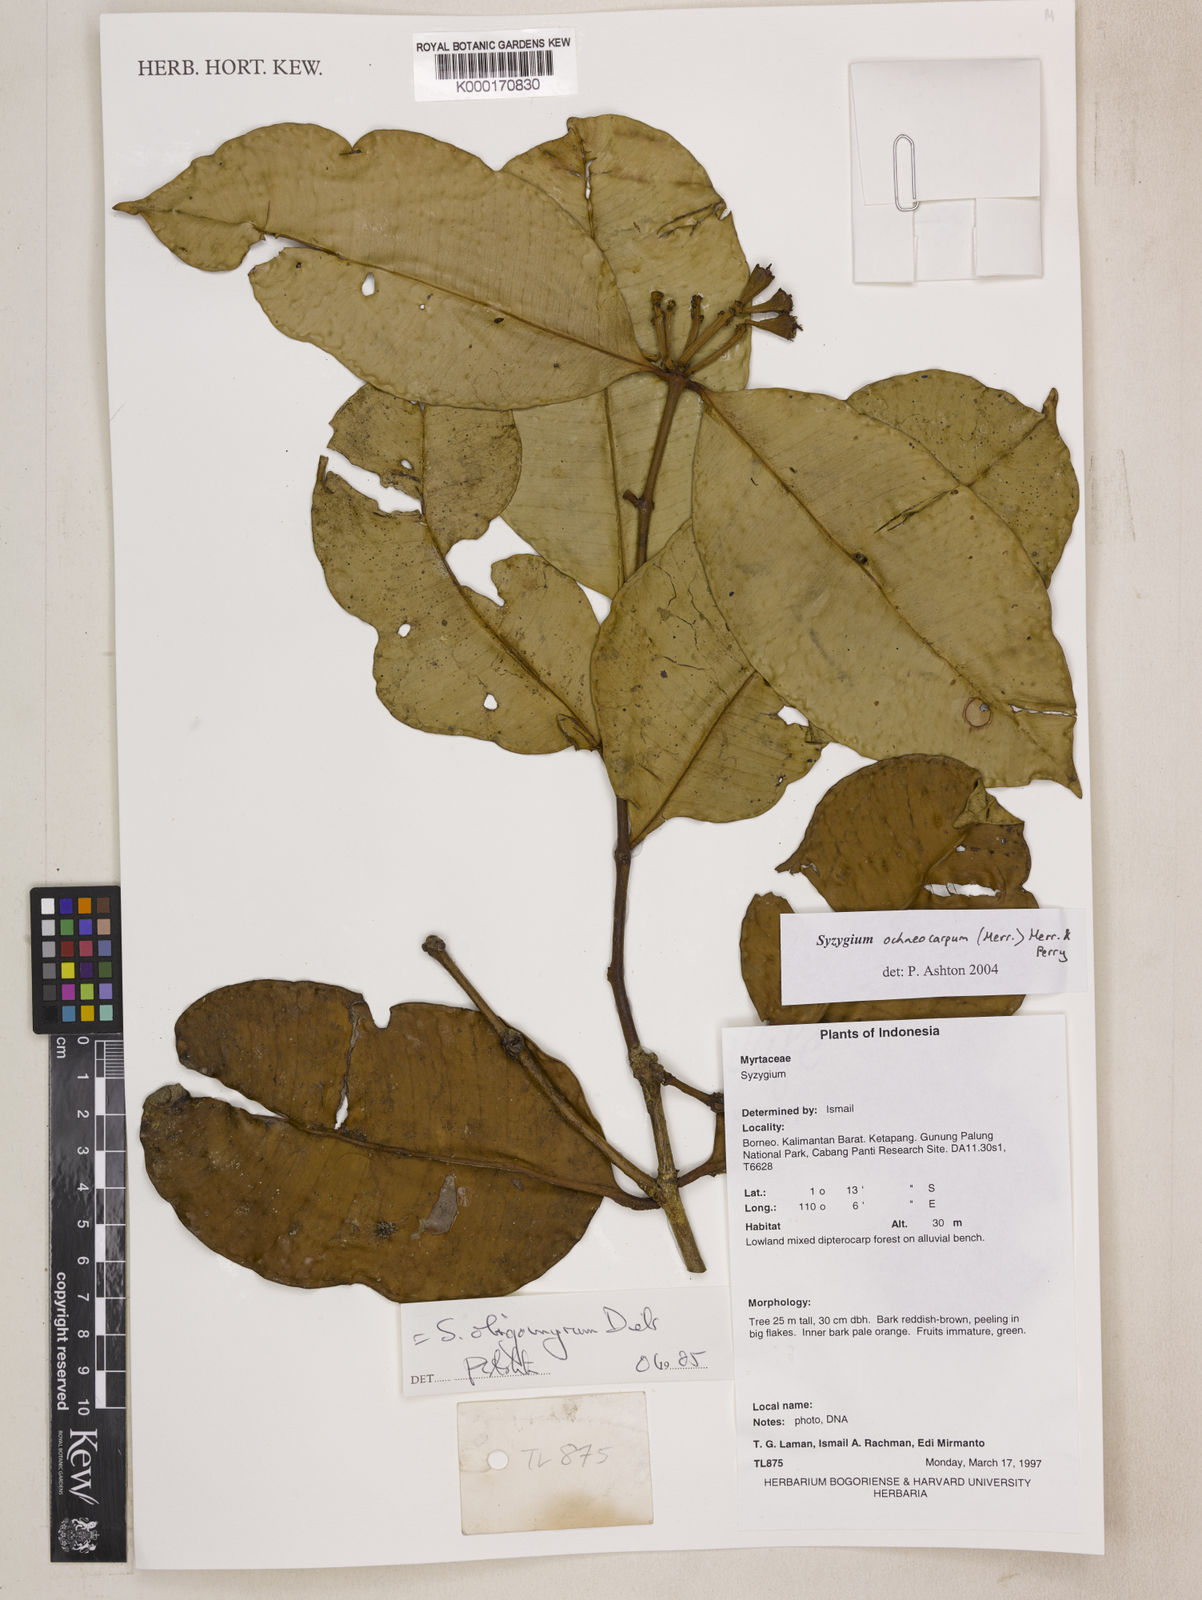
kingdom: Plantae
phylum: Tracheophyta
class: Magnoliopsida
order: Myrtales
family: Myrtaceae
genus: Syzygium
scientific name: Syzygium oligomyrum
